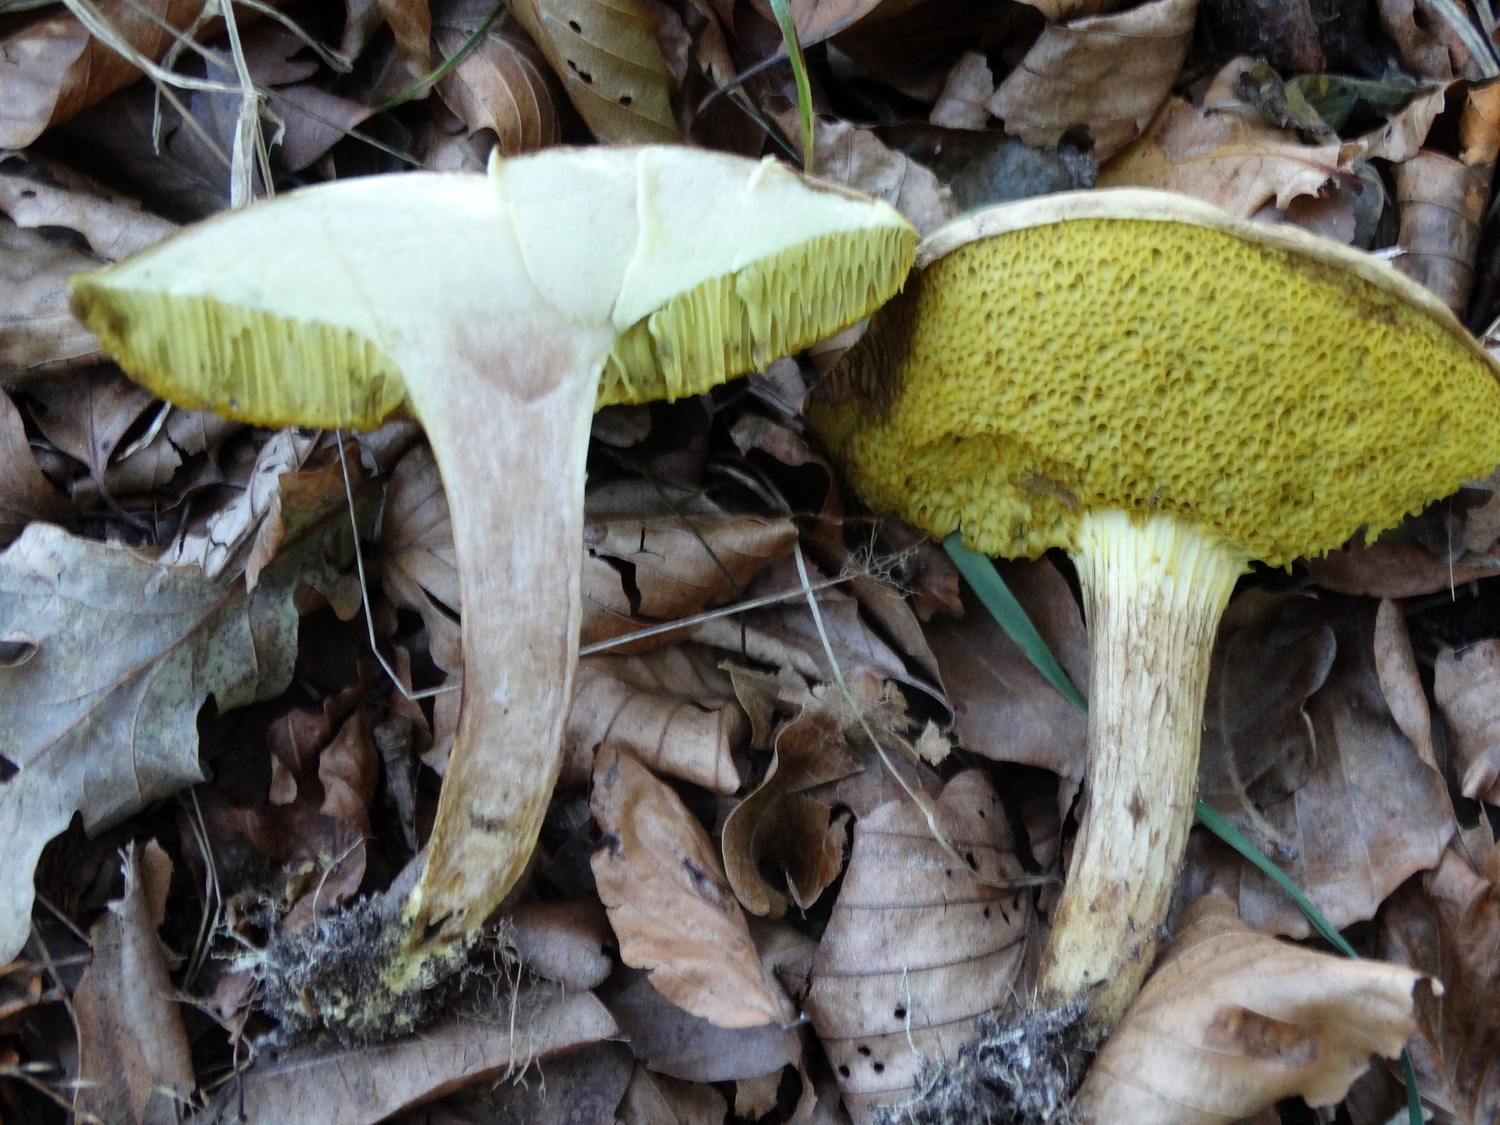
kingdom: Fungi
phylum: Basidiomycota
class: Agaricomycetes
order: Boletales
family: Boletaceae
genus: Xerocomus
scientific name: Xerocomus ferrugineus
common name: vaskeskinds-rørhat
